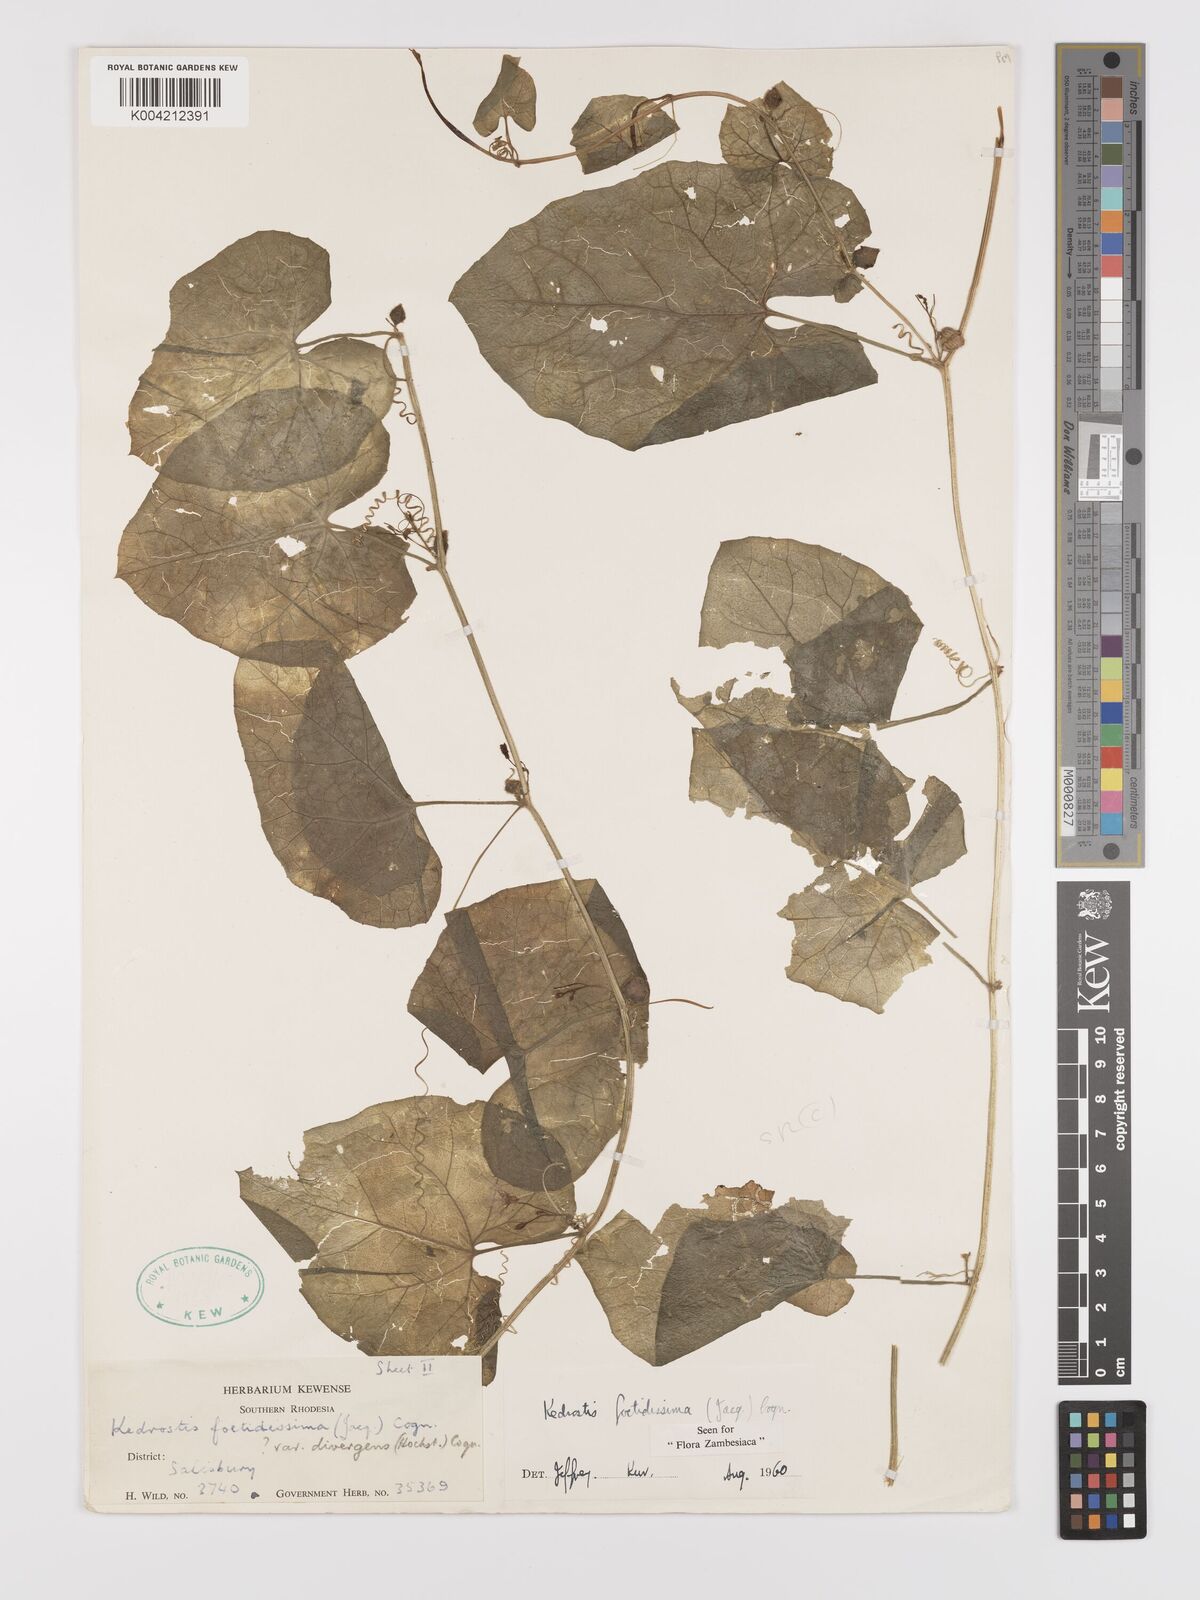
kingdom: Plantae
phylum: Tracheophyta
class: Magnoliopsida
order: Cucurbitales
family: Cucurbitaceae
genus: Kedrostis
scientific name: Kedrostis foetidissima
